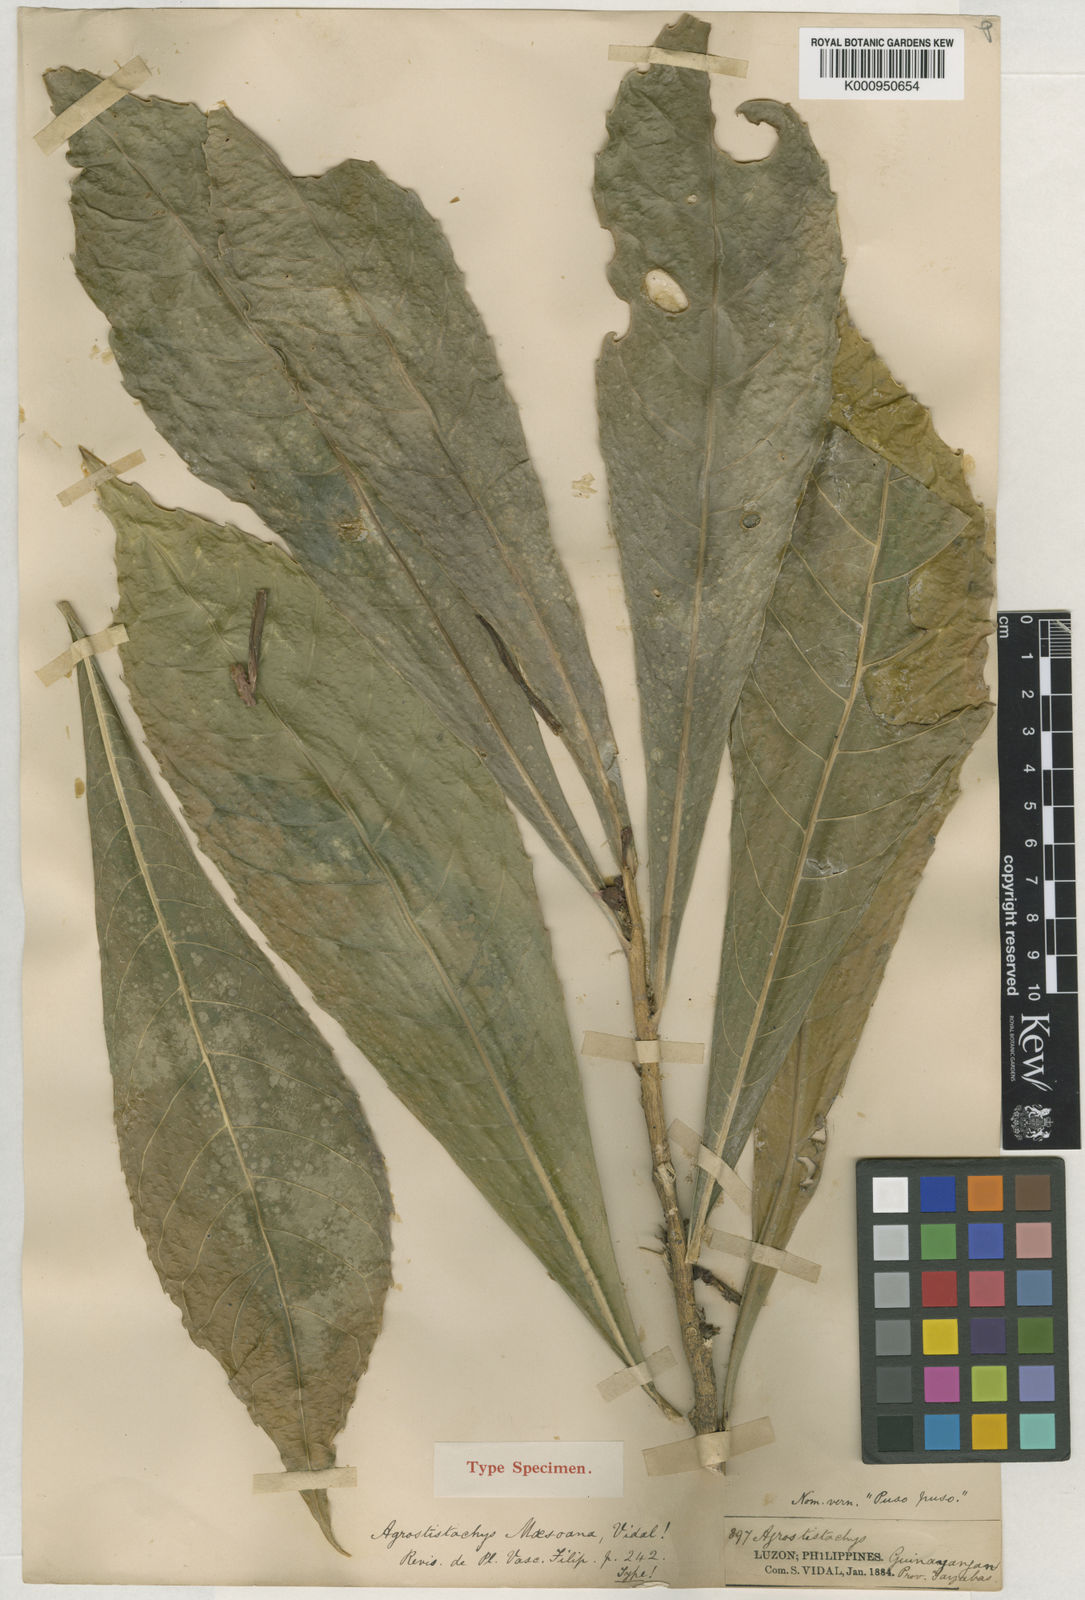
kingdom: Plantae
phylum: Tracheophyta
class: Magnoliopsida
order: Malpighiales
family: Euphorbiaceae
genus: Agrostistachys
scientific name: Agrostistachys indica
